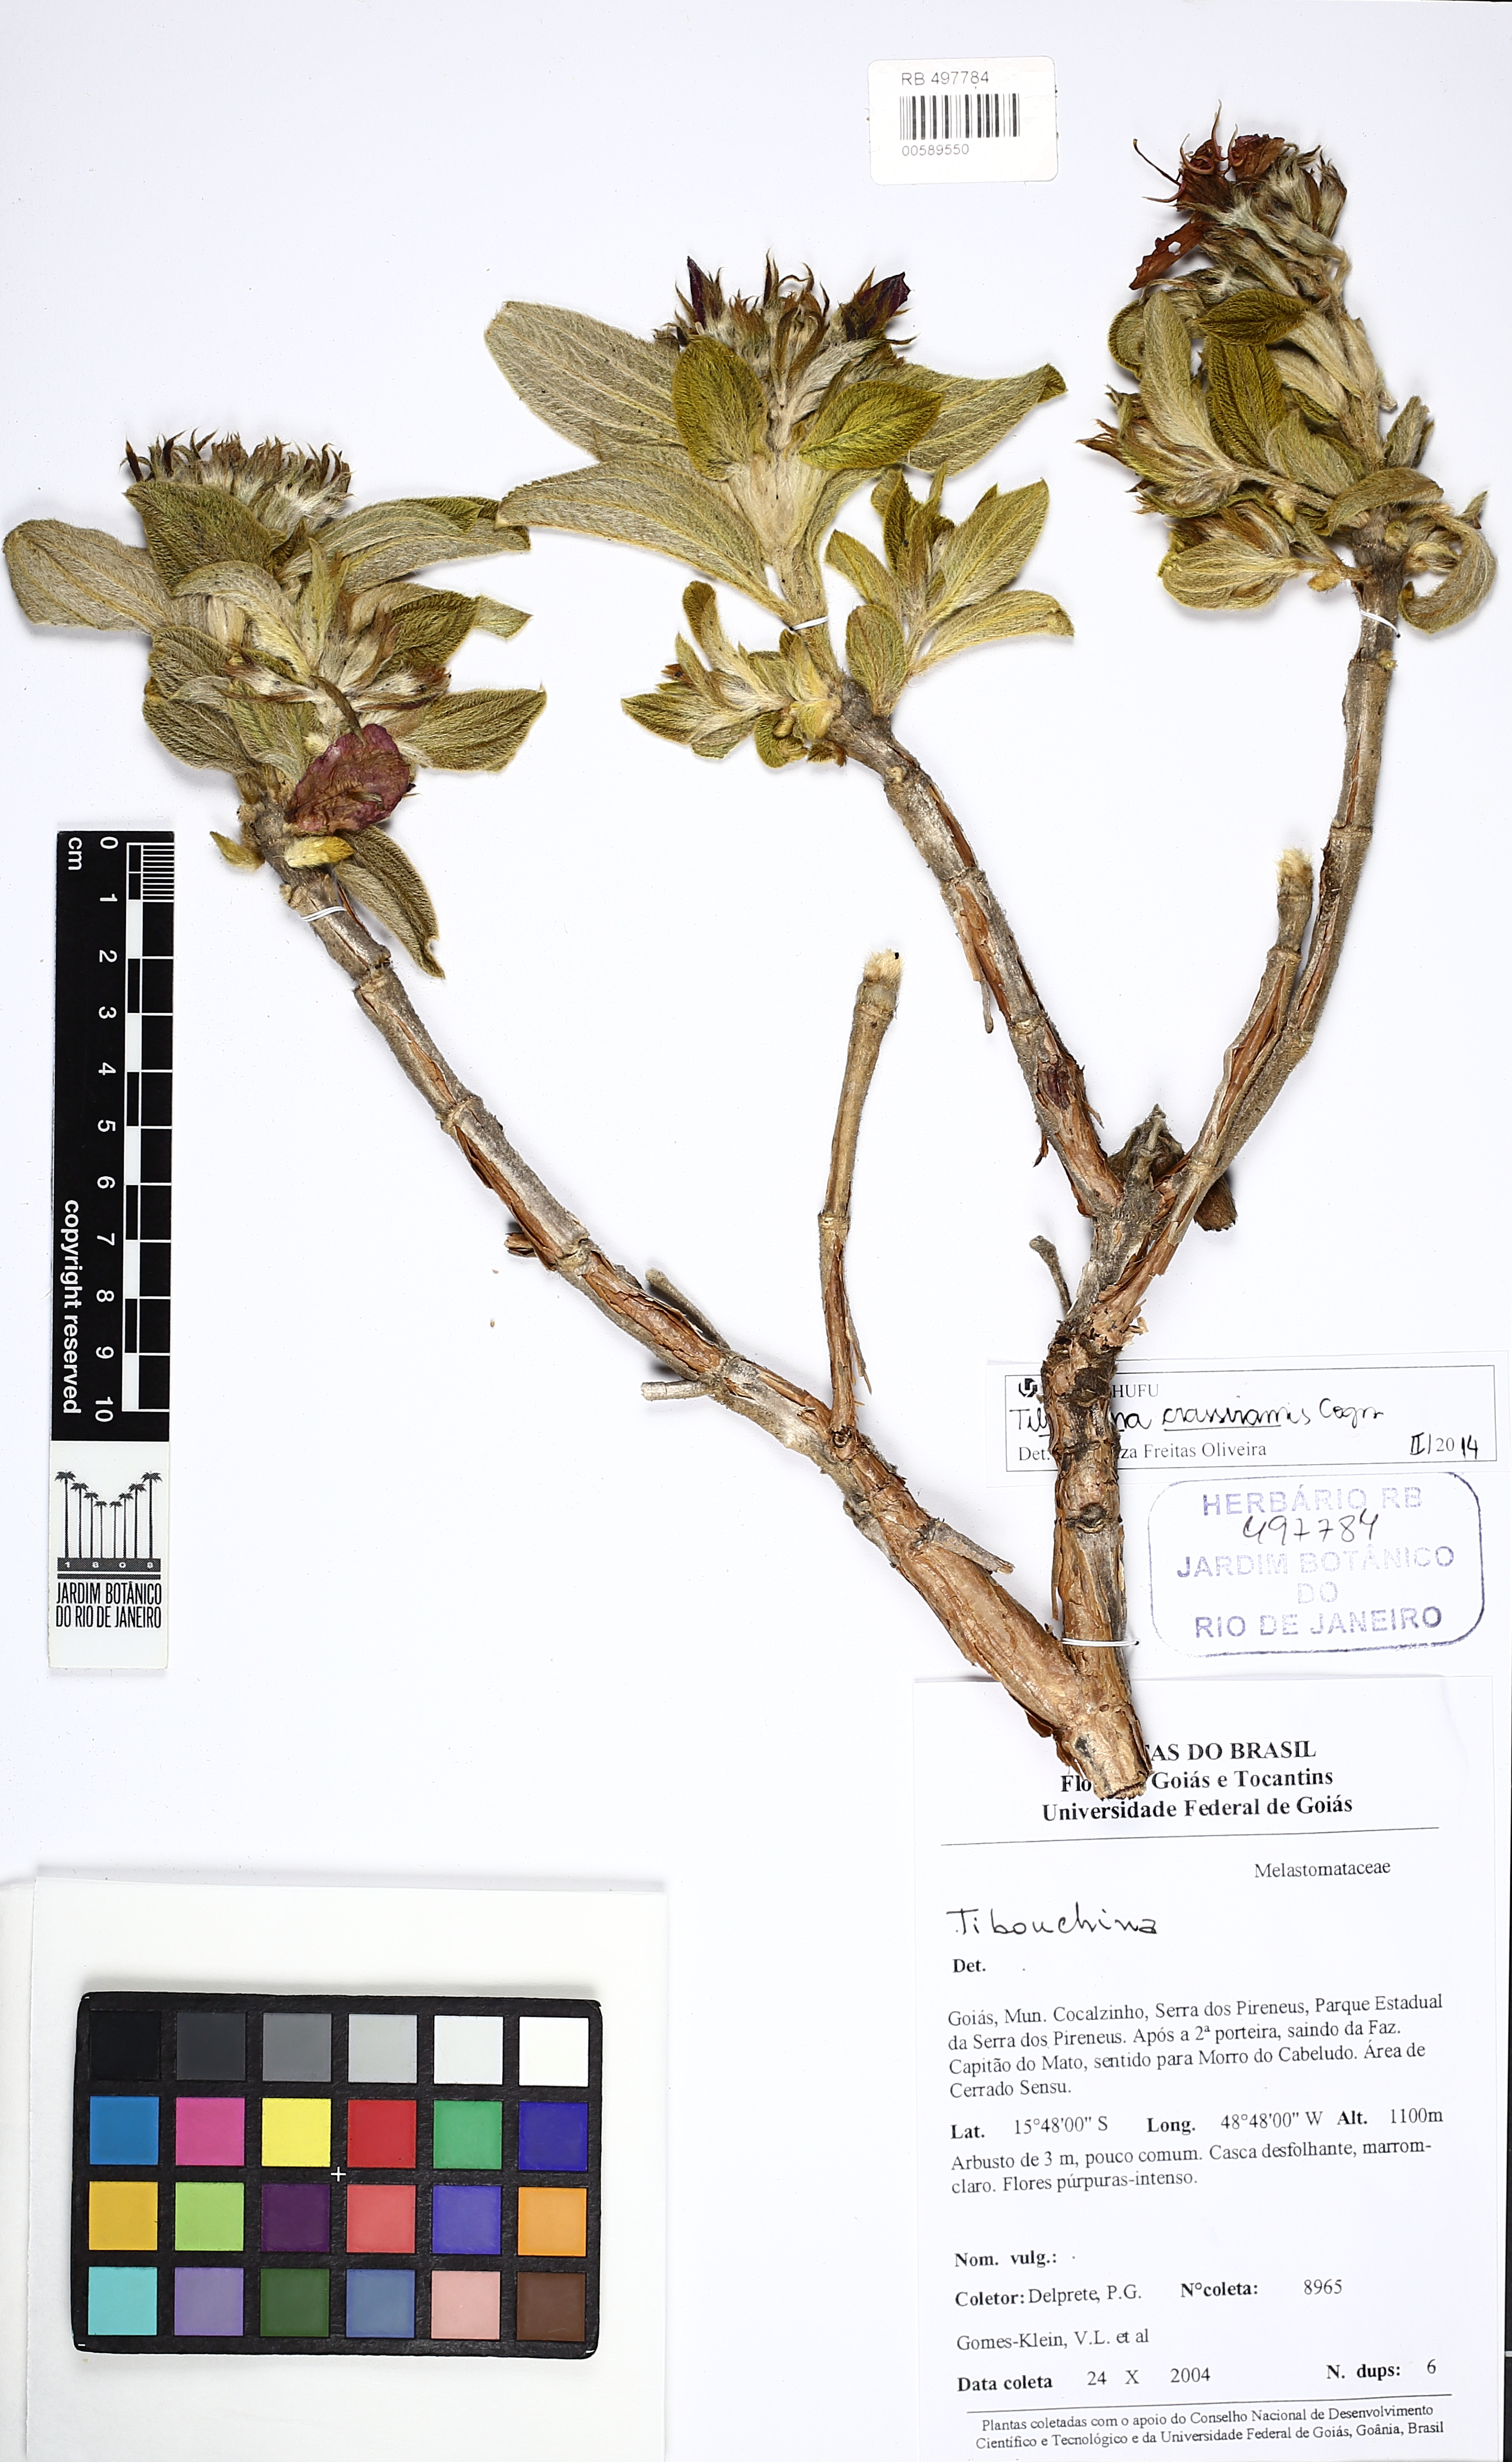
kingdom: Plantae
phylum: Tracheophyta
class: Magnoliopsida
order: Myrtales
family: Melastomataceae
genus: Pleroma
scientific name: Pleroma crassirame
